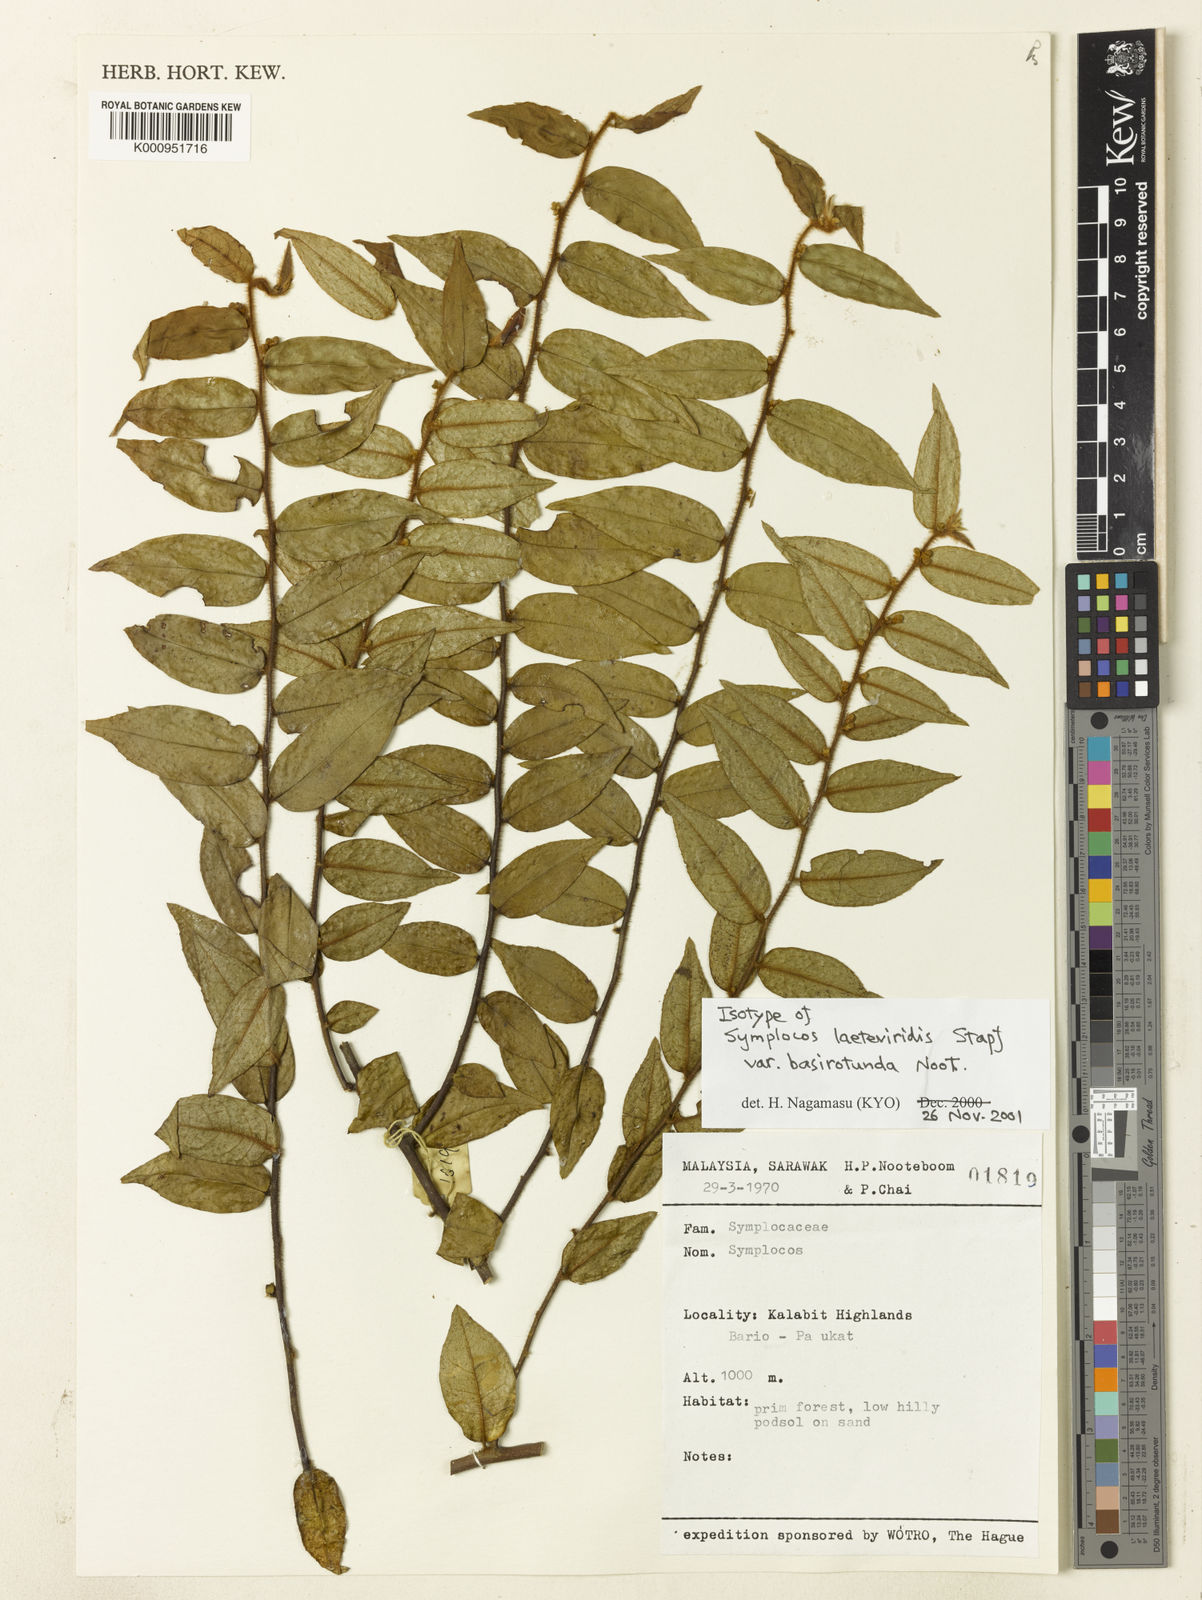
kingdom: Plantae
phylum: Tracheophyta
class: Magnoliopsida
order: Ericales
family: Symplocaceae
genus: Symplocos
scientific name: Symplocos laeteviridis
